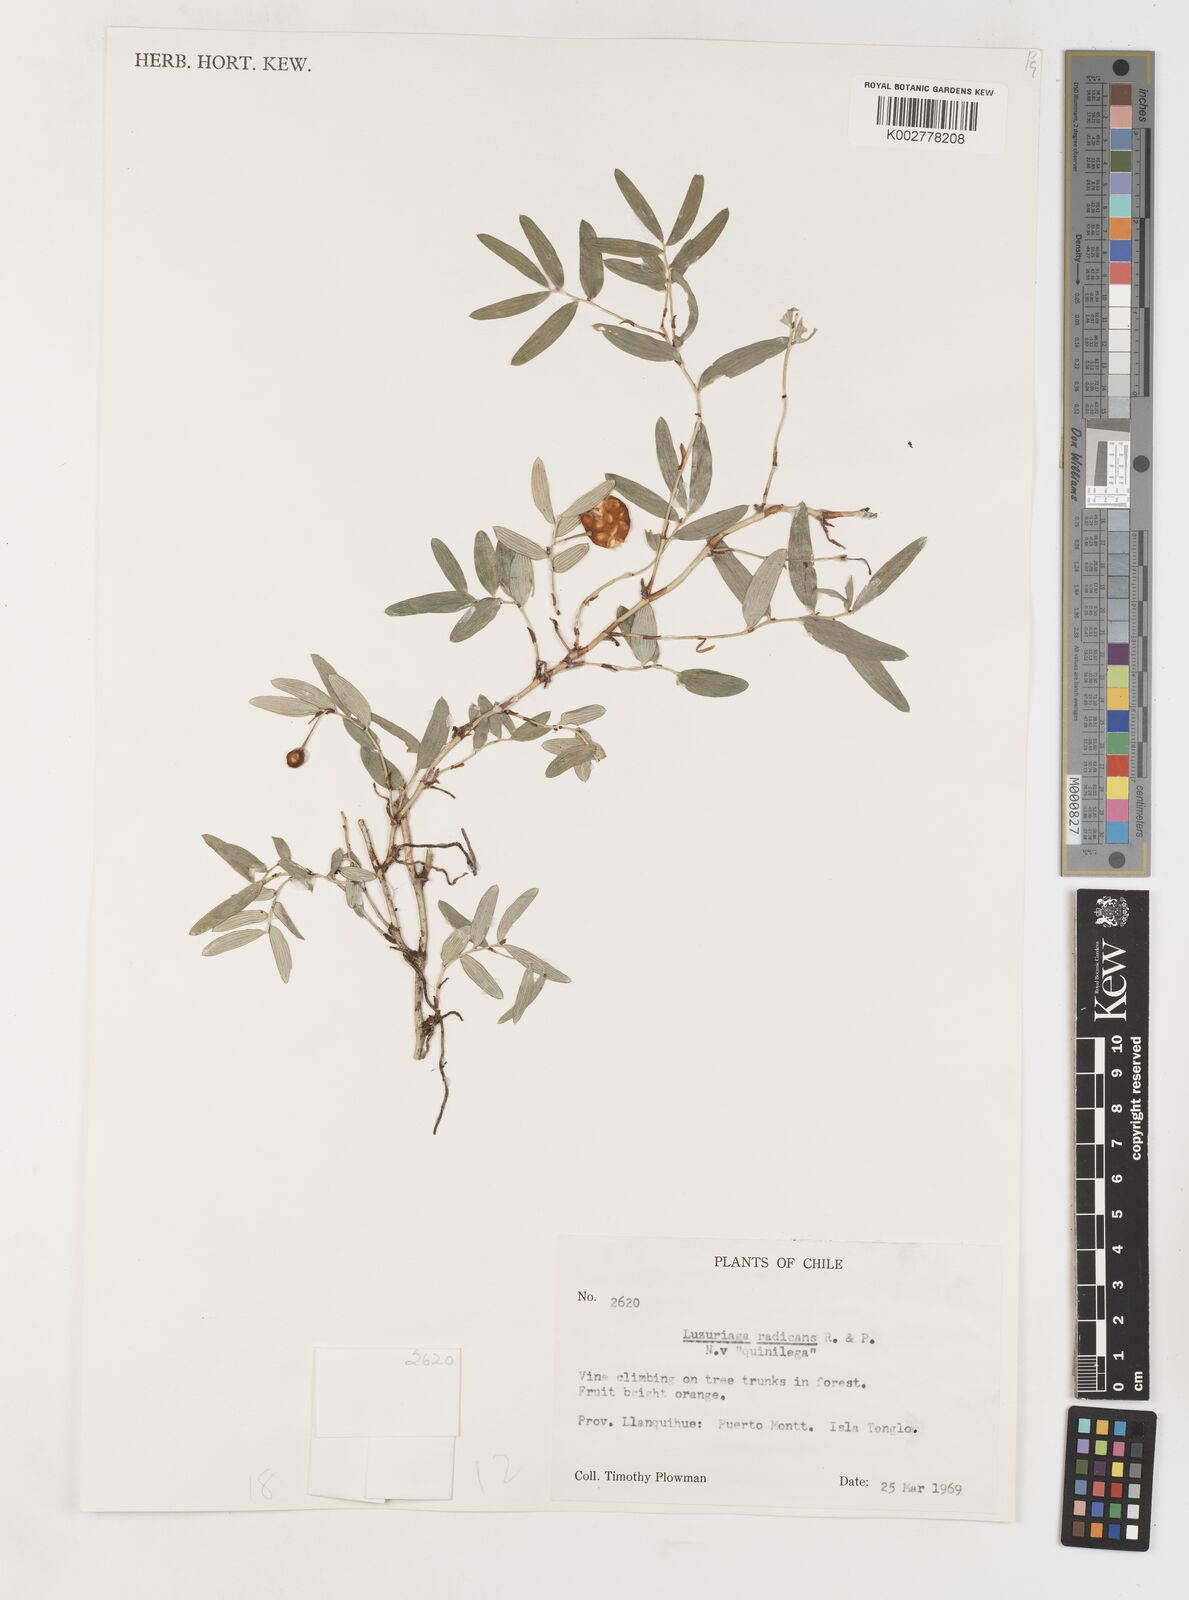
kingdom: Plantae
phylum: Tracheophyta
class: Liliopsida
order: Liliales
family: Alstroemeriaceae
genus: Luzuriaga
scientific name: Luzuriaga radicans
